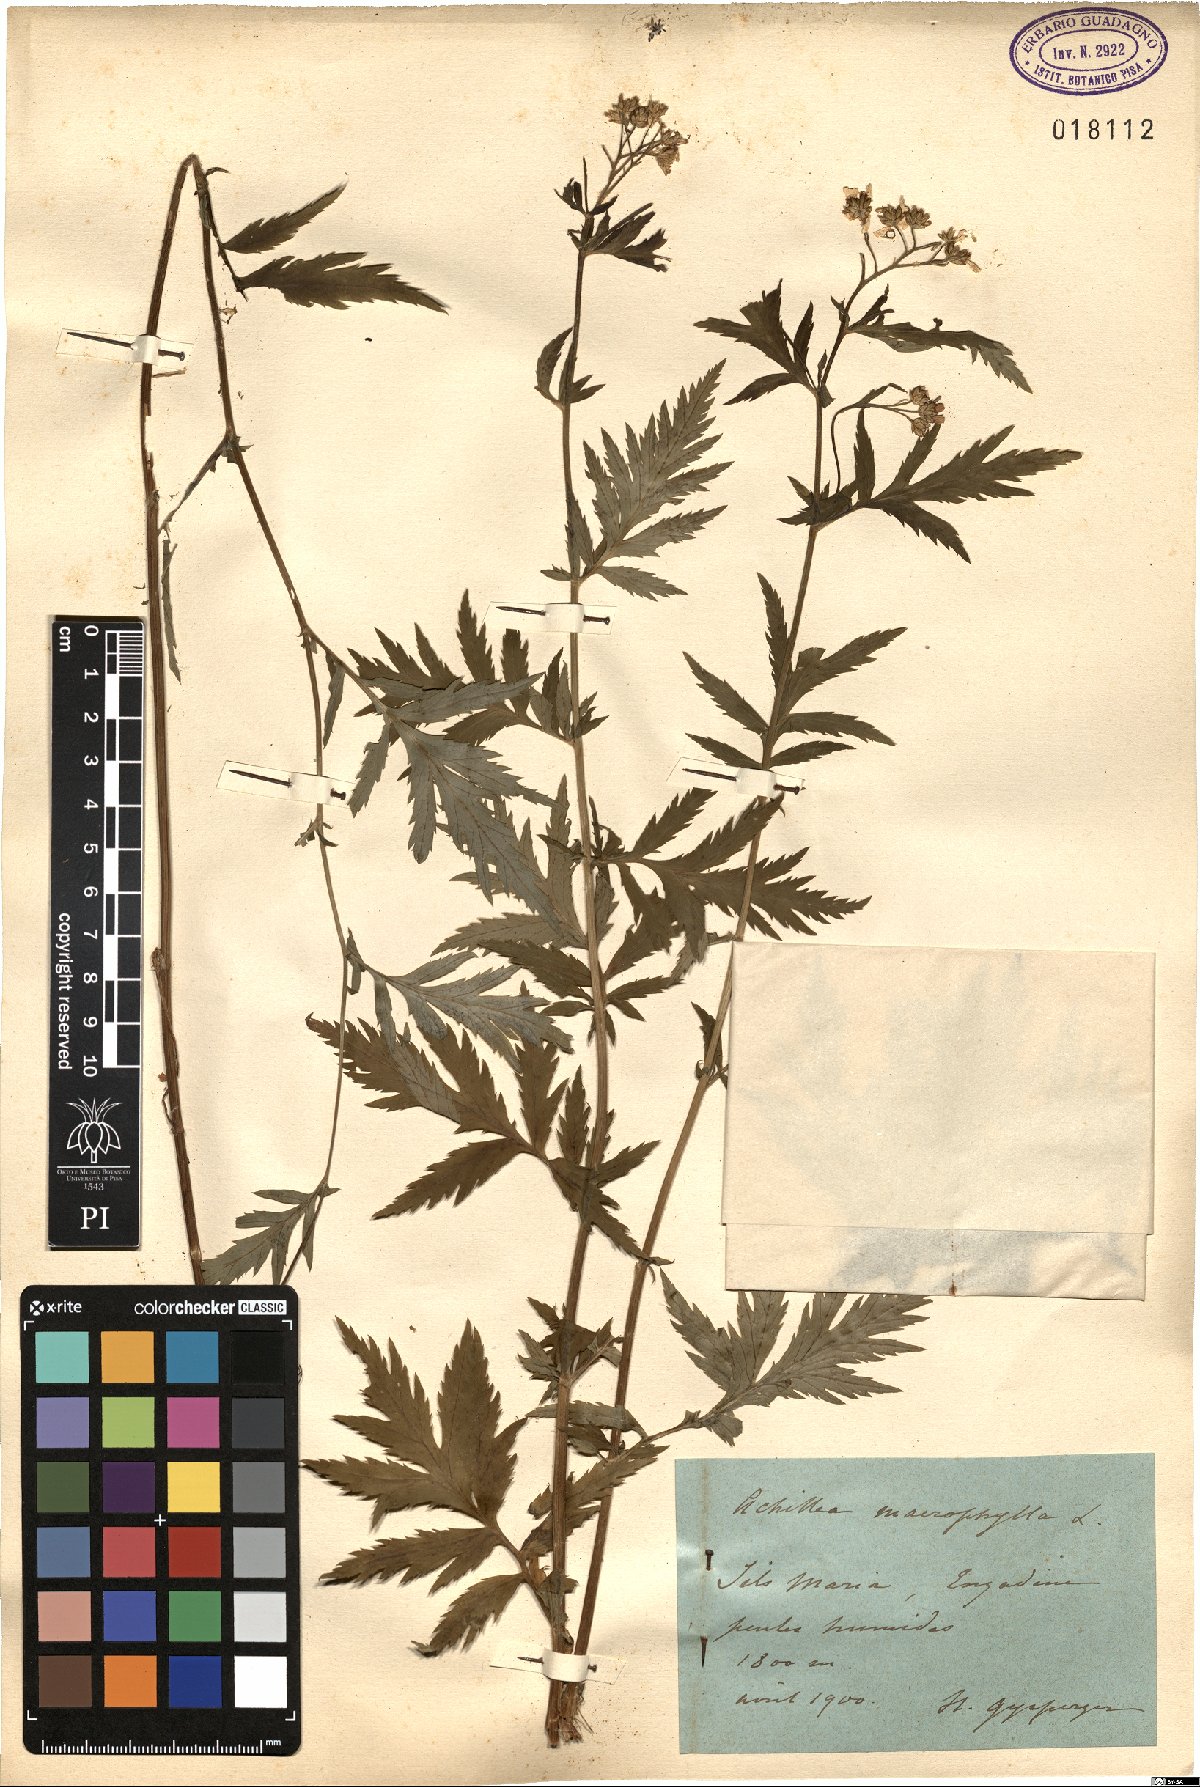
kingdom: Plantae
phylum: Tracheophyta
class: Magnoliopsida
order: Asterales
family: Asteraceae
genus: Achillea
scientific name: Achillea macrophylla
